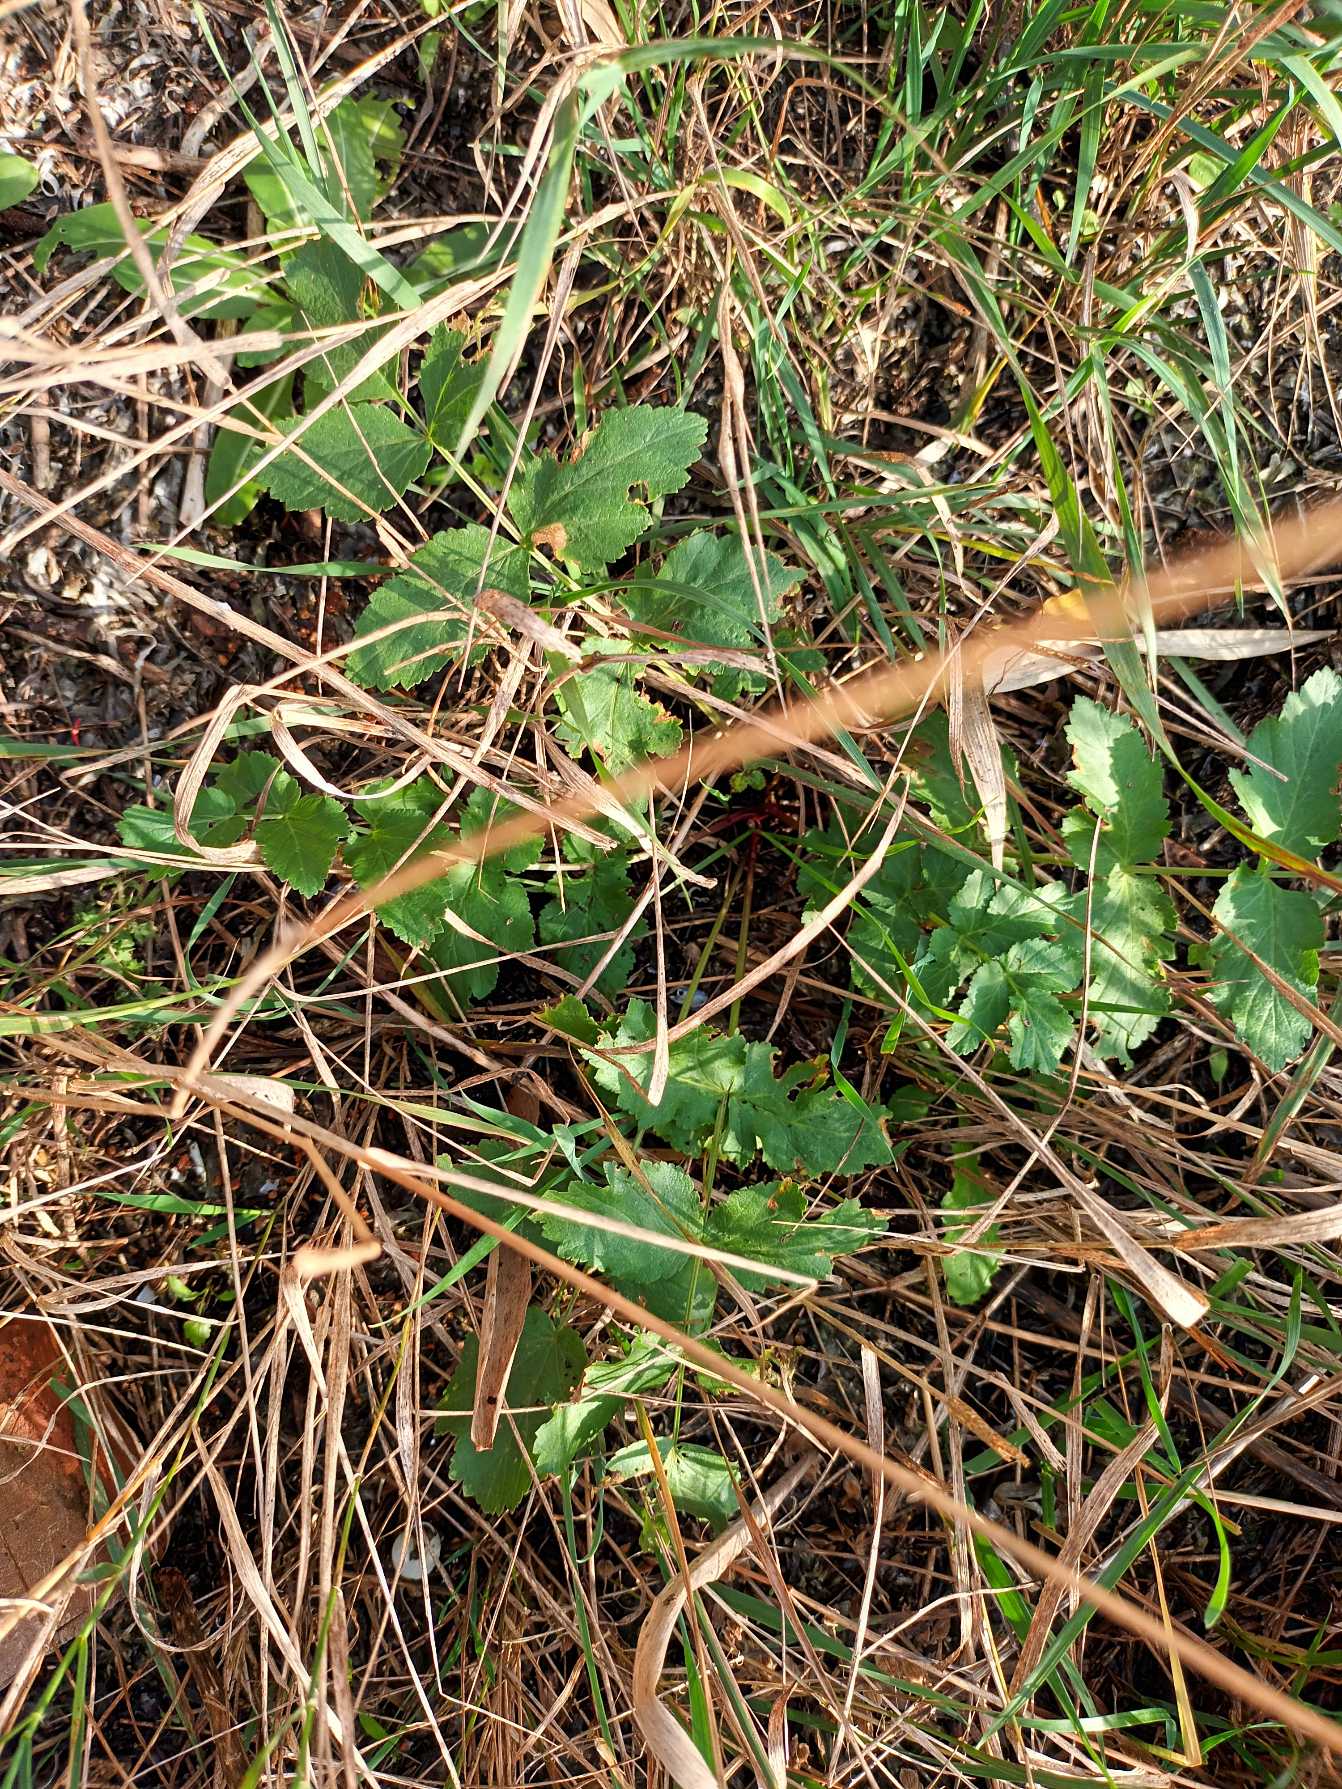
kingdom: Plantae
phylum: Tracheophyta
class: Magnoliopsida
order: Apiales
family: Apiaceae
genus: Pastinaca
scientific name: Pastinaca sativa
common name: Pastinak
